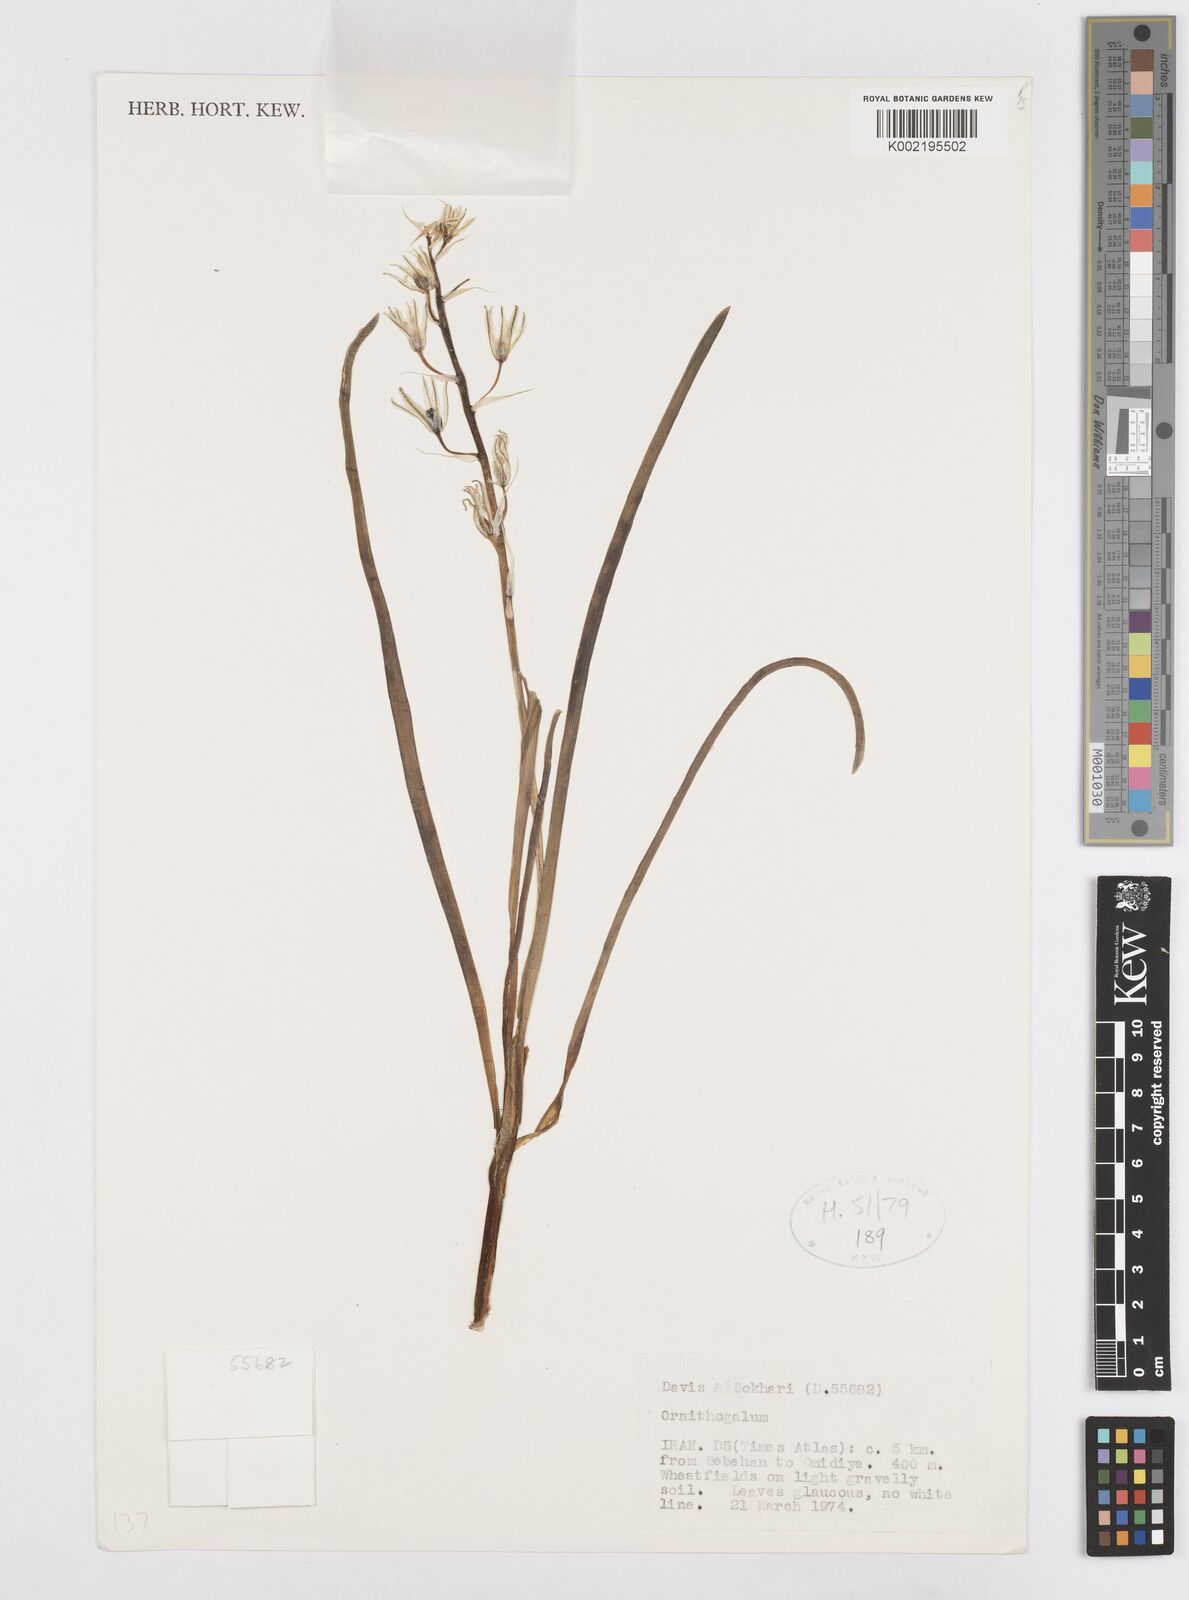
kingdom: Plantae
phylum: Tracheophyta
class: Liliopsida
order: Asparagales
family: Asparagaceae
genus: Ornithogalum
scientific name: Ornithogalum
